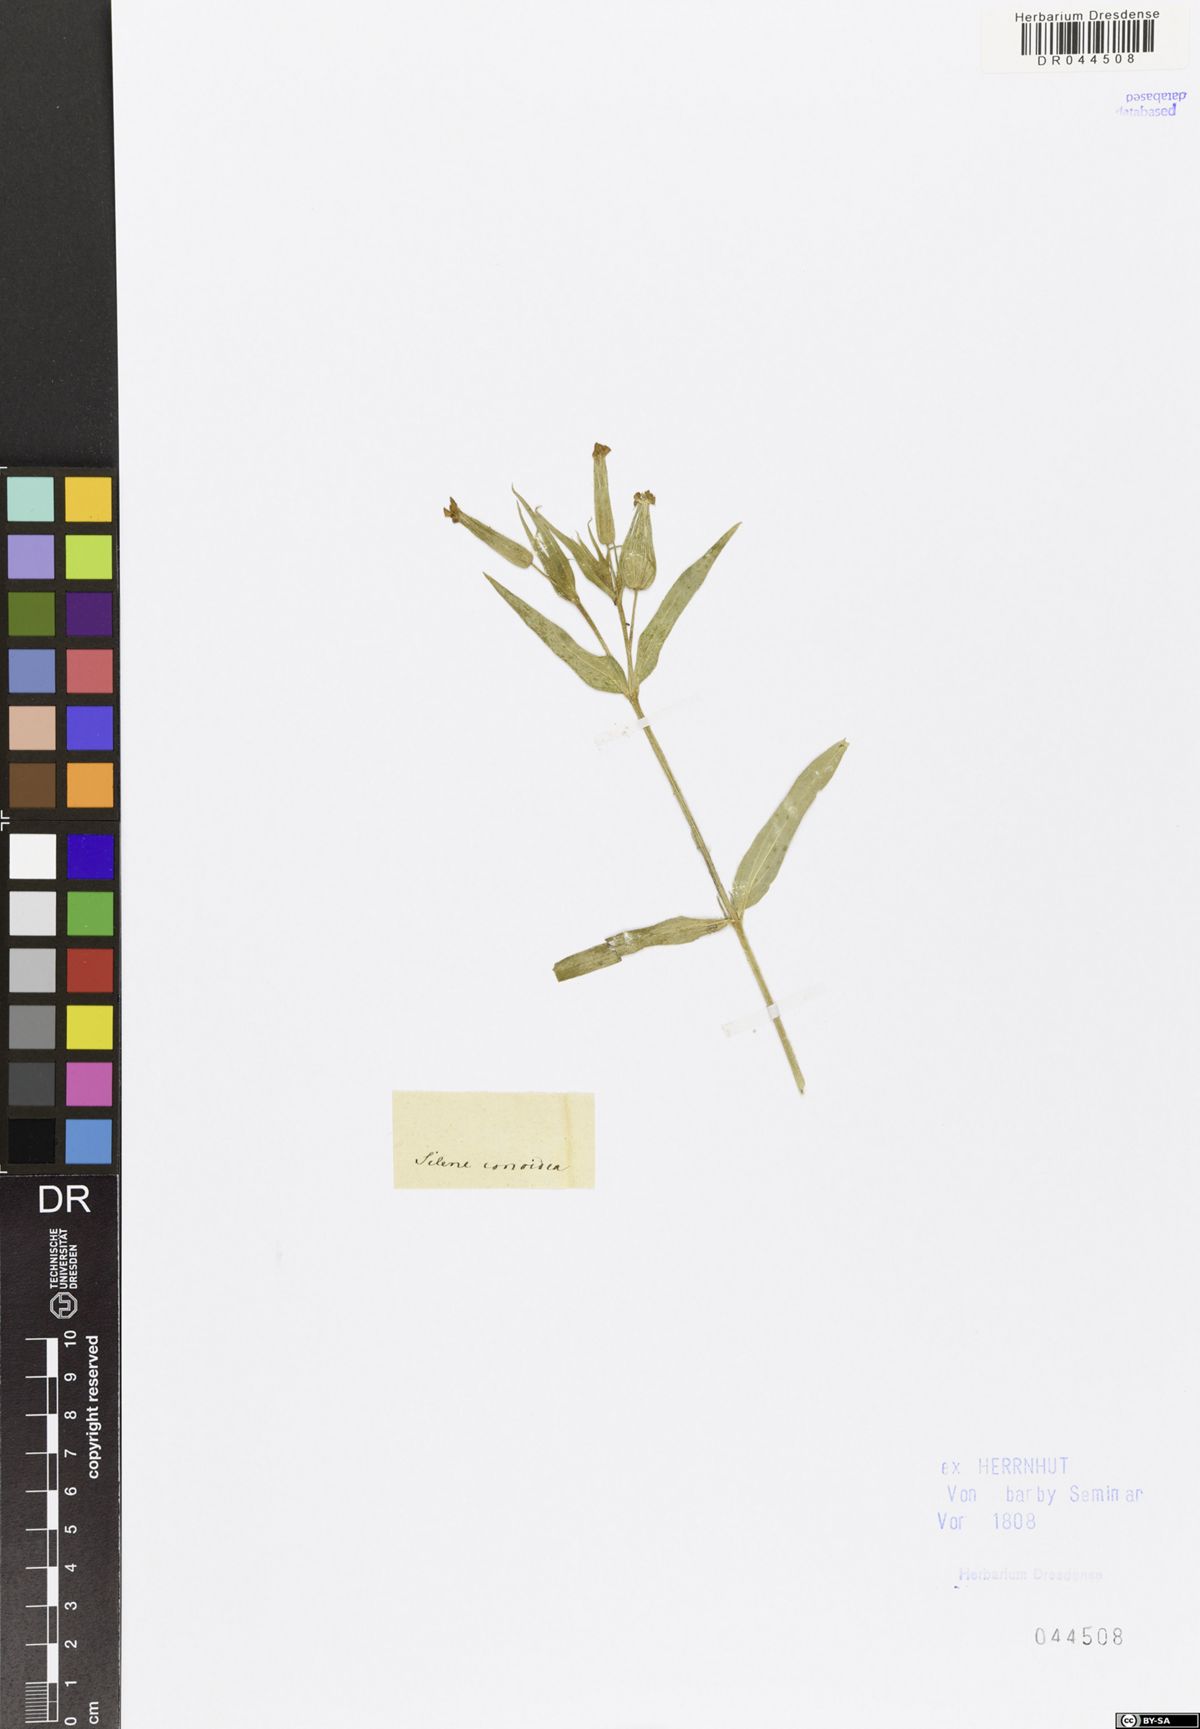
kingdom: Plantae
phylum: Tracheophyta
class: Magnoliopsida
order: Caryophyllales
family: Caryophyllaceae
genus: Silene
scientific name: Silene conoidea
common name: Weed silene
